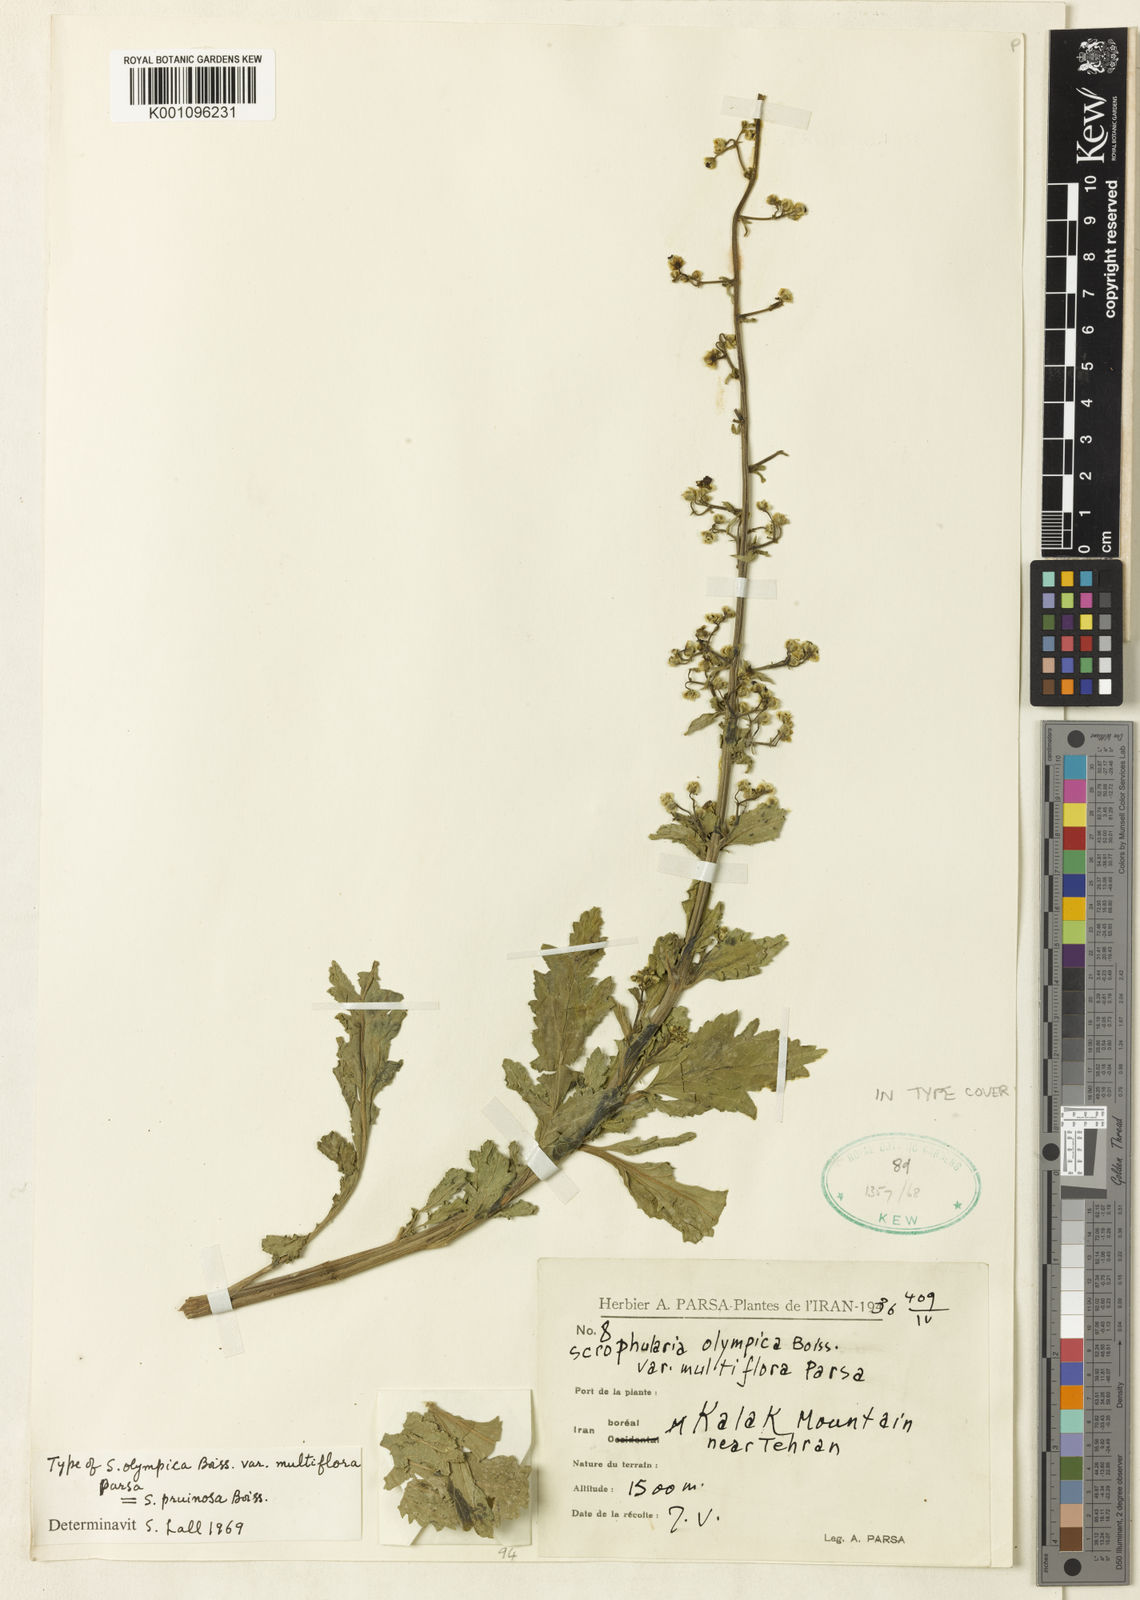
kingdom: Plantae
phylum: Tracheophyta
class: Magnoliopsida
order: Lamiales
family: Scrophulariaceae
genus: Scrophularia
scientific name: Scrophularia olympica
